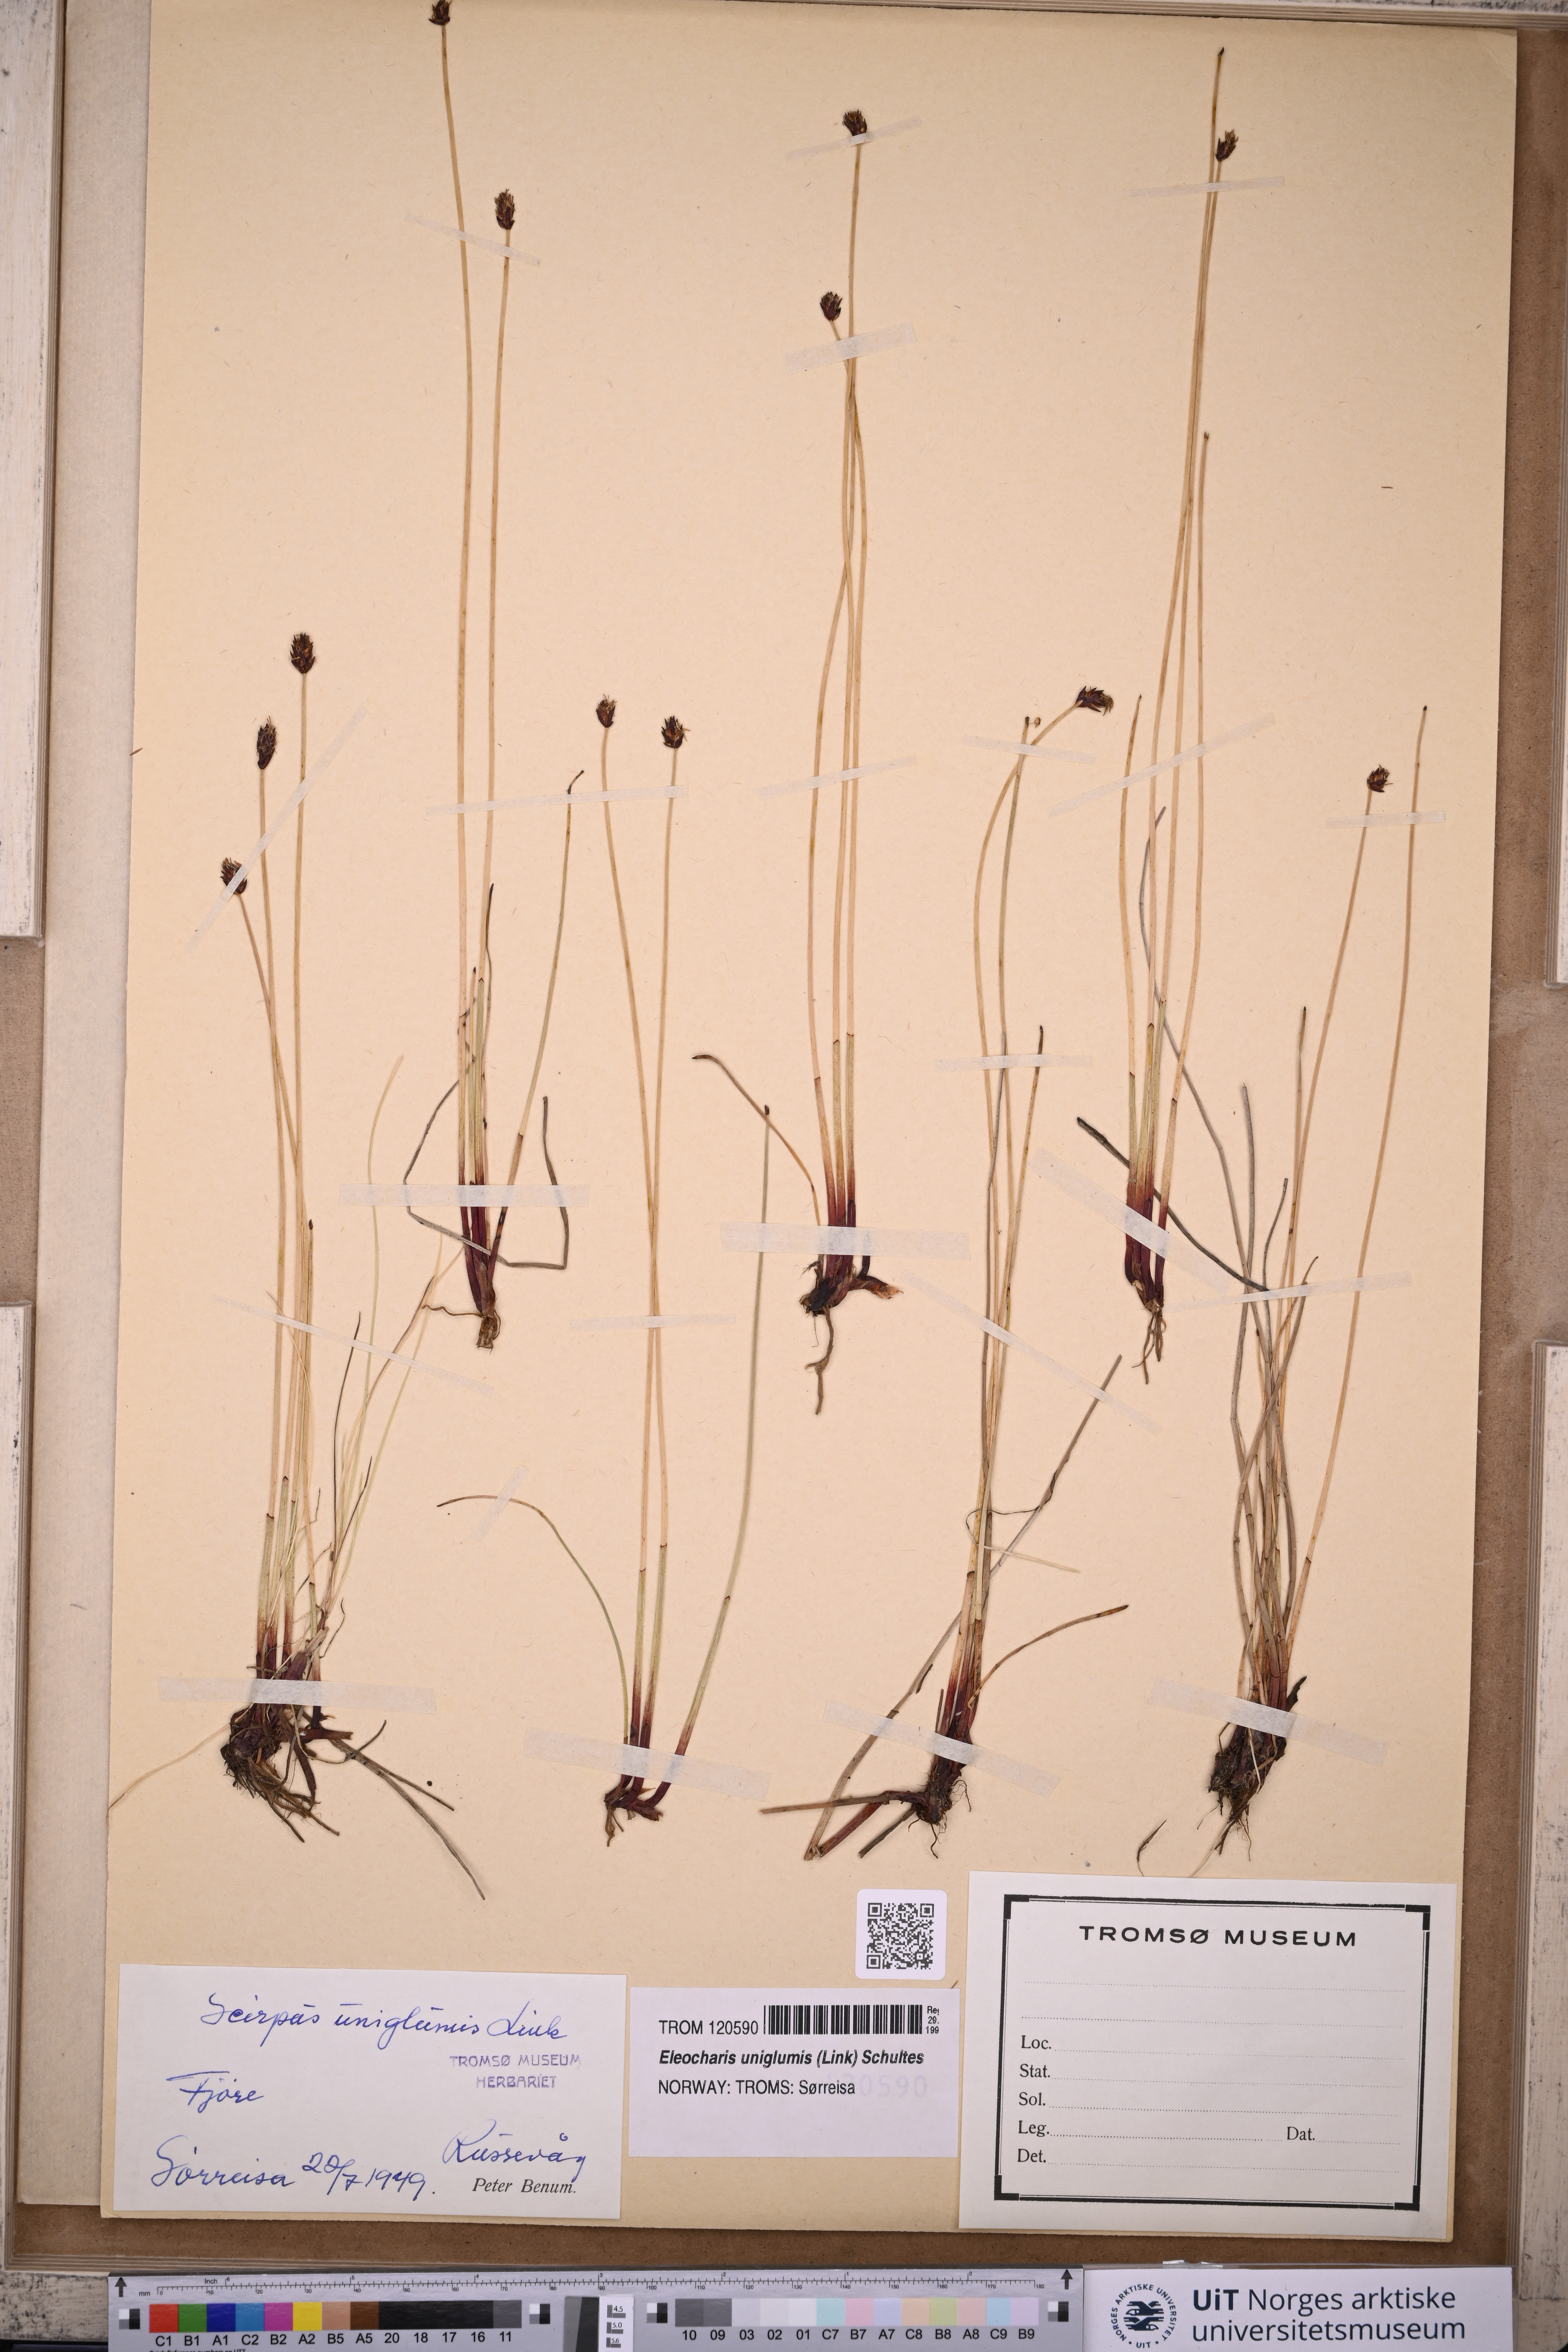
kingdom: Plantae
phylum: Tracheophyta
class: Liliopsida
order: Poales
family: Cyperaceae
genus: Eleocharis
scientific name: Eleocharis uniglumis
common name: Slender spike-rush
